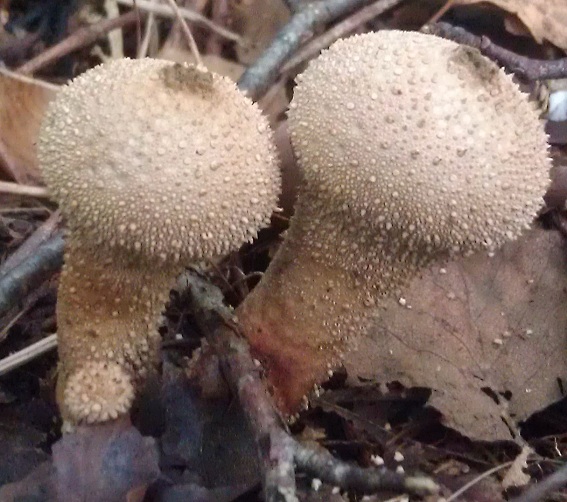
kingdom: Fungi
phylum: Basidiomycota
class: Agaricomycetes
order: Agaricales
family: Lycoperdaceae
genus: Lycoperdon
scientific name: Lycoperdon perlatum
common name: krystal-støvbold
